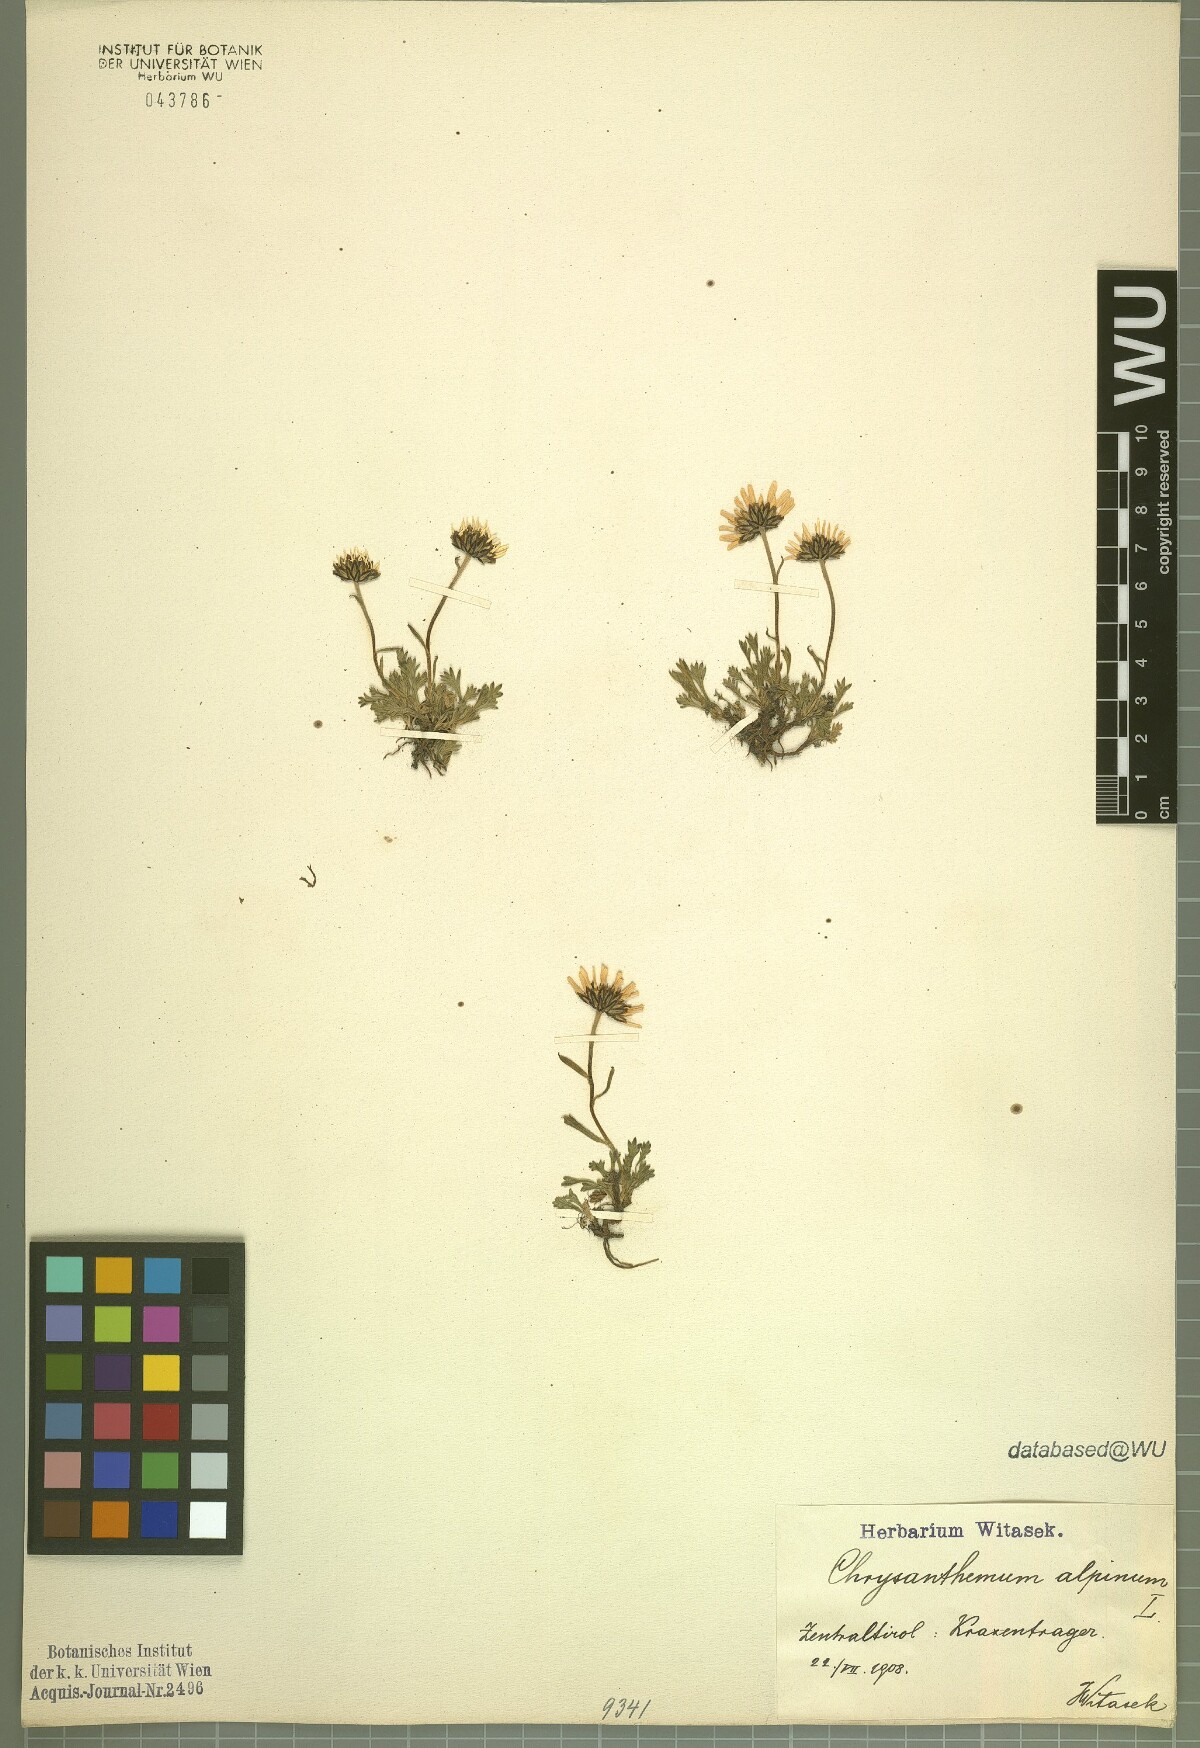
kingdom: Plantae
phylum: Tracheophyta
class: Magnoliopsida
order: Asterales
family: Asteraceae
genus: Leucanthemopsis
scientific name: Leucanthemopsis alpina
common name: Alpine moon daisy
